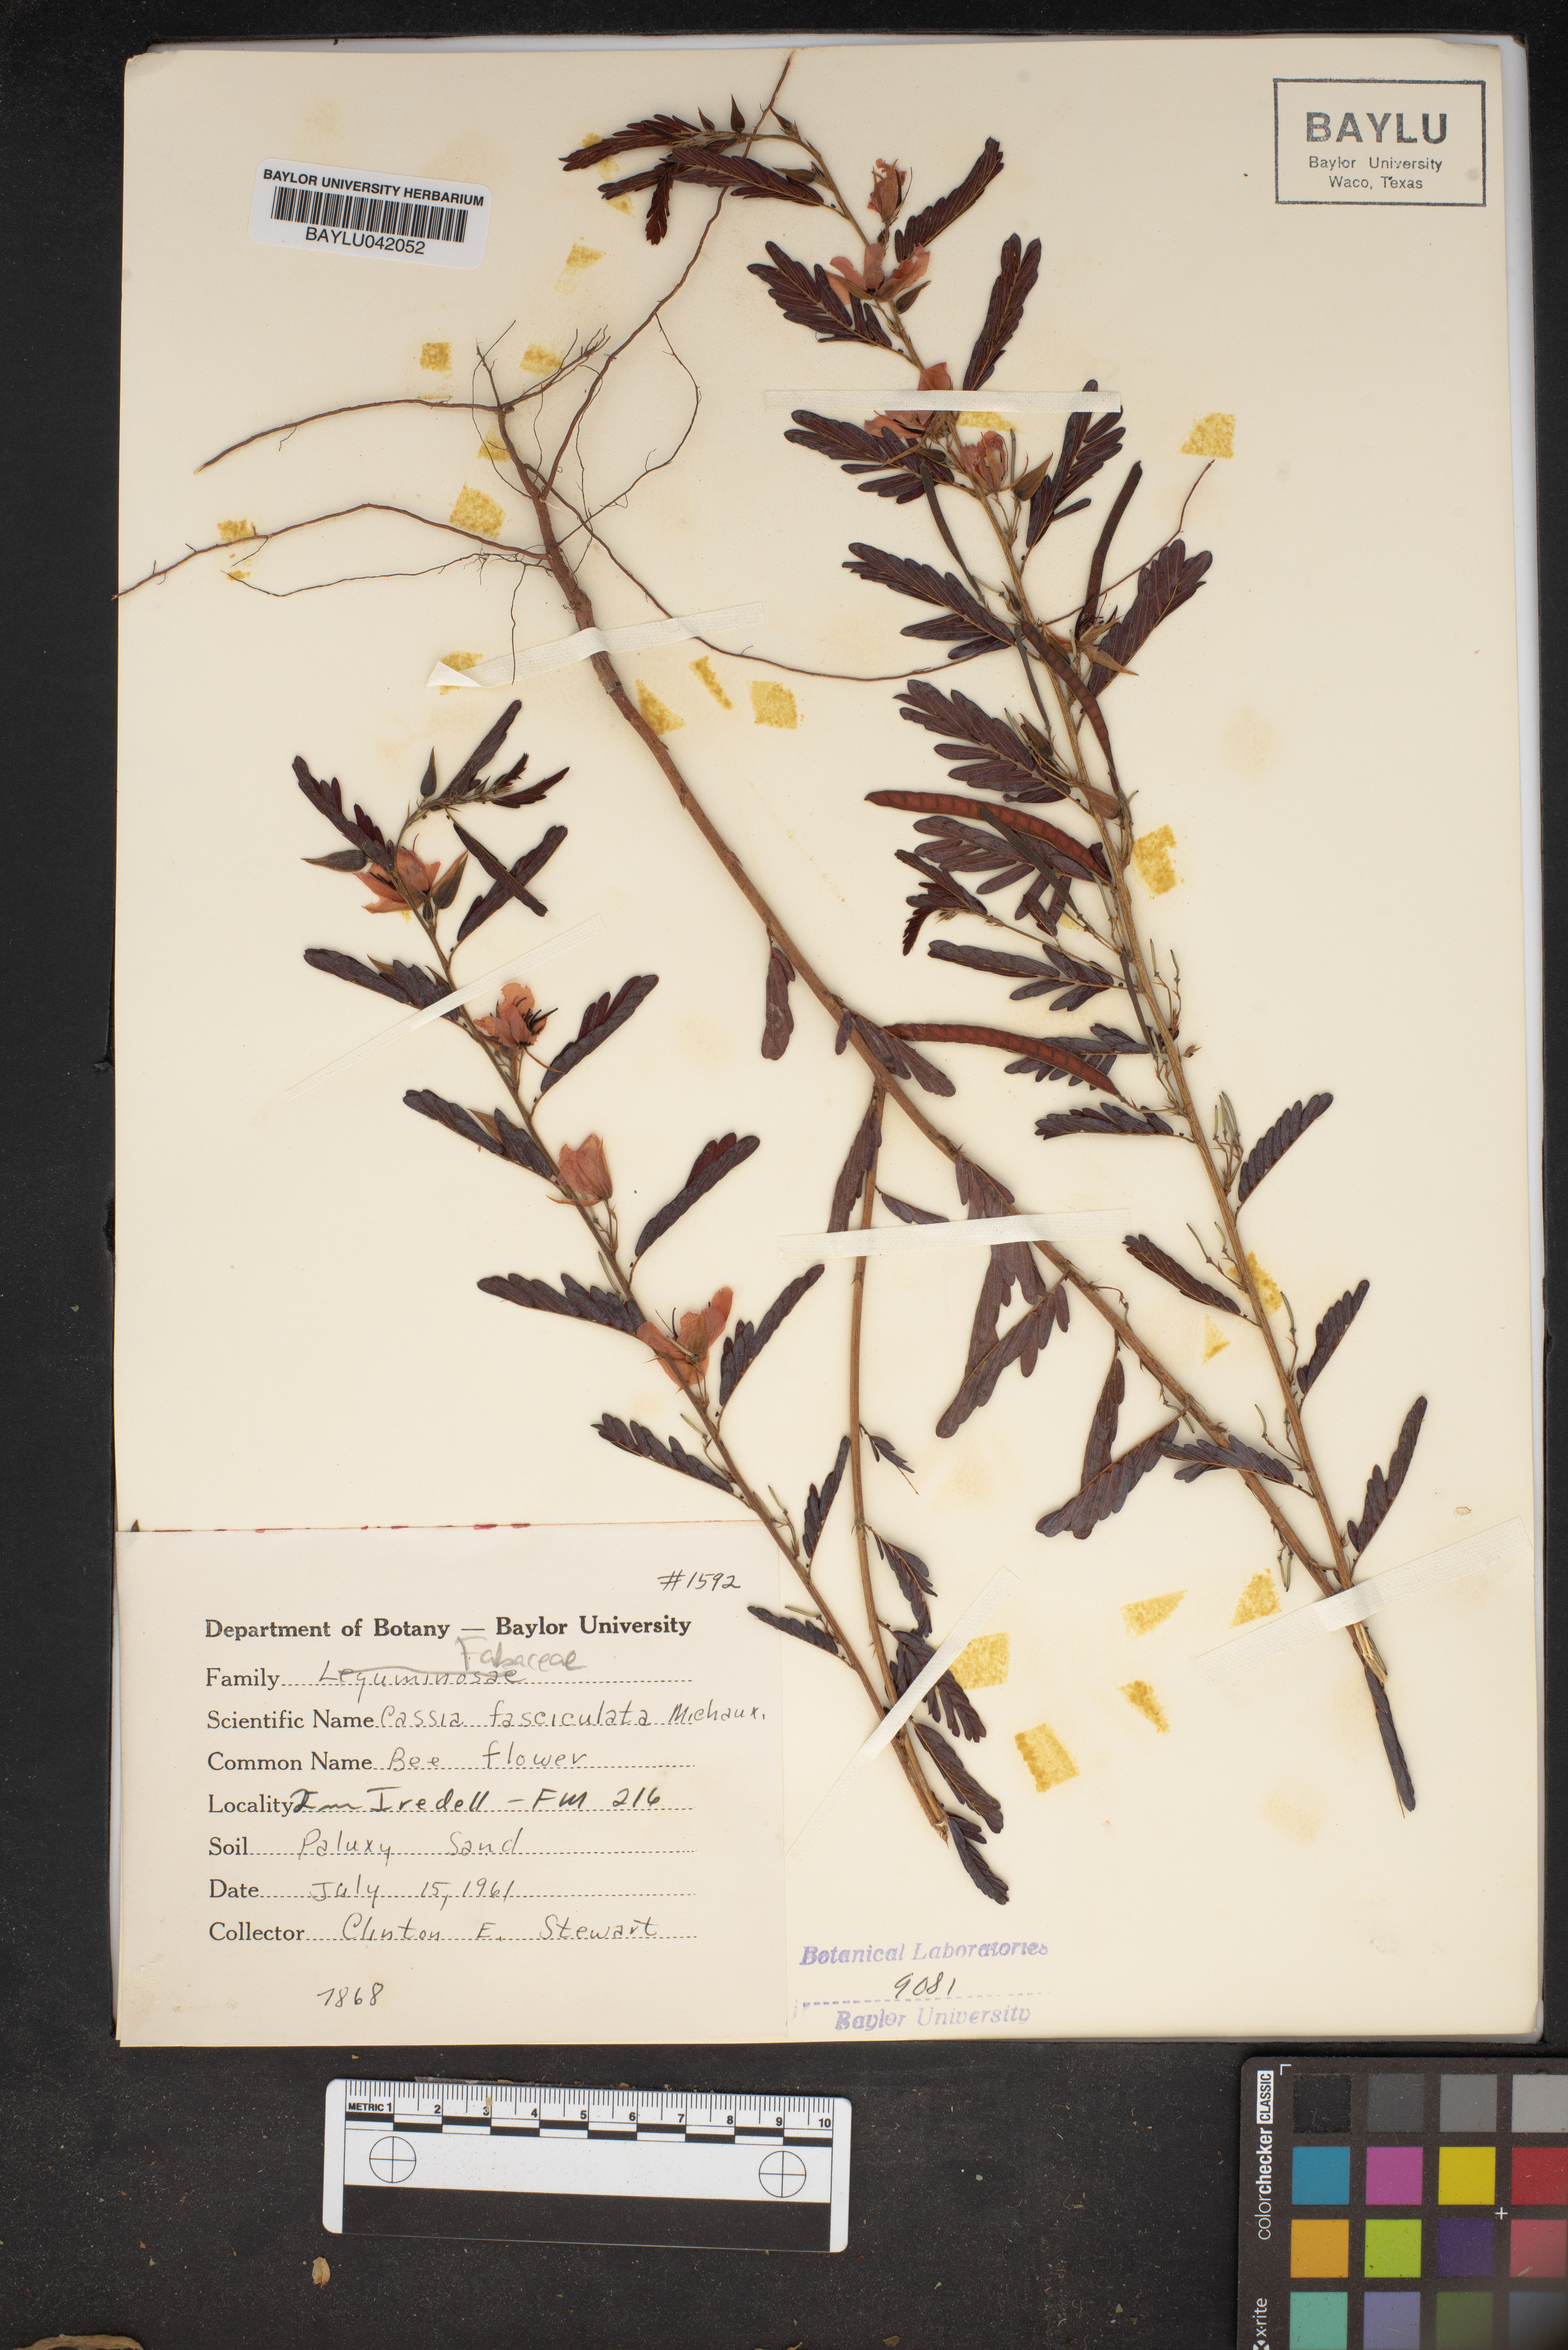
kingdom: Plantae
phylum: Tracheophyta
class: Magnoliopsida
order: Fabales
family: Fabaceae
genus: Chamaecrista
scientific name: Chamaecrista fasciculata
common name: Golden cassia
